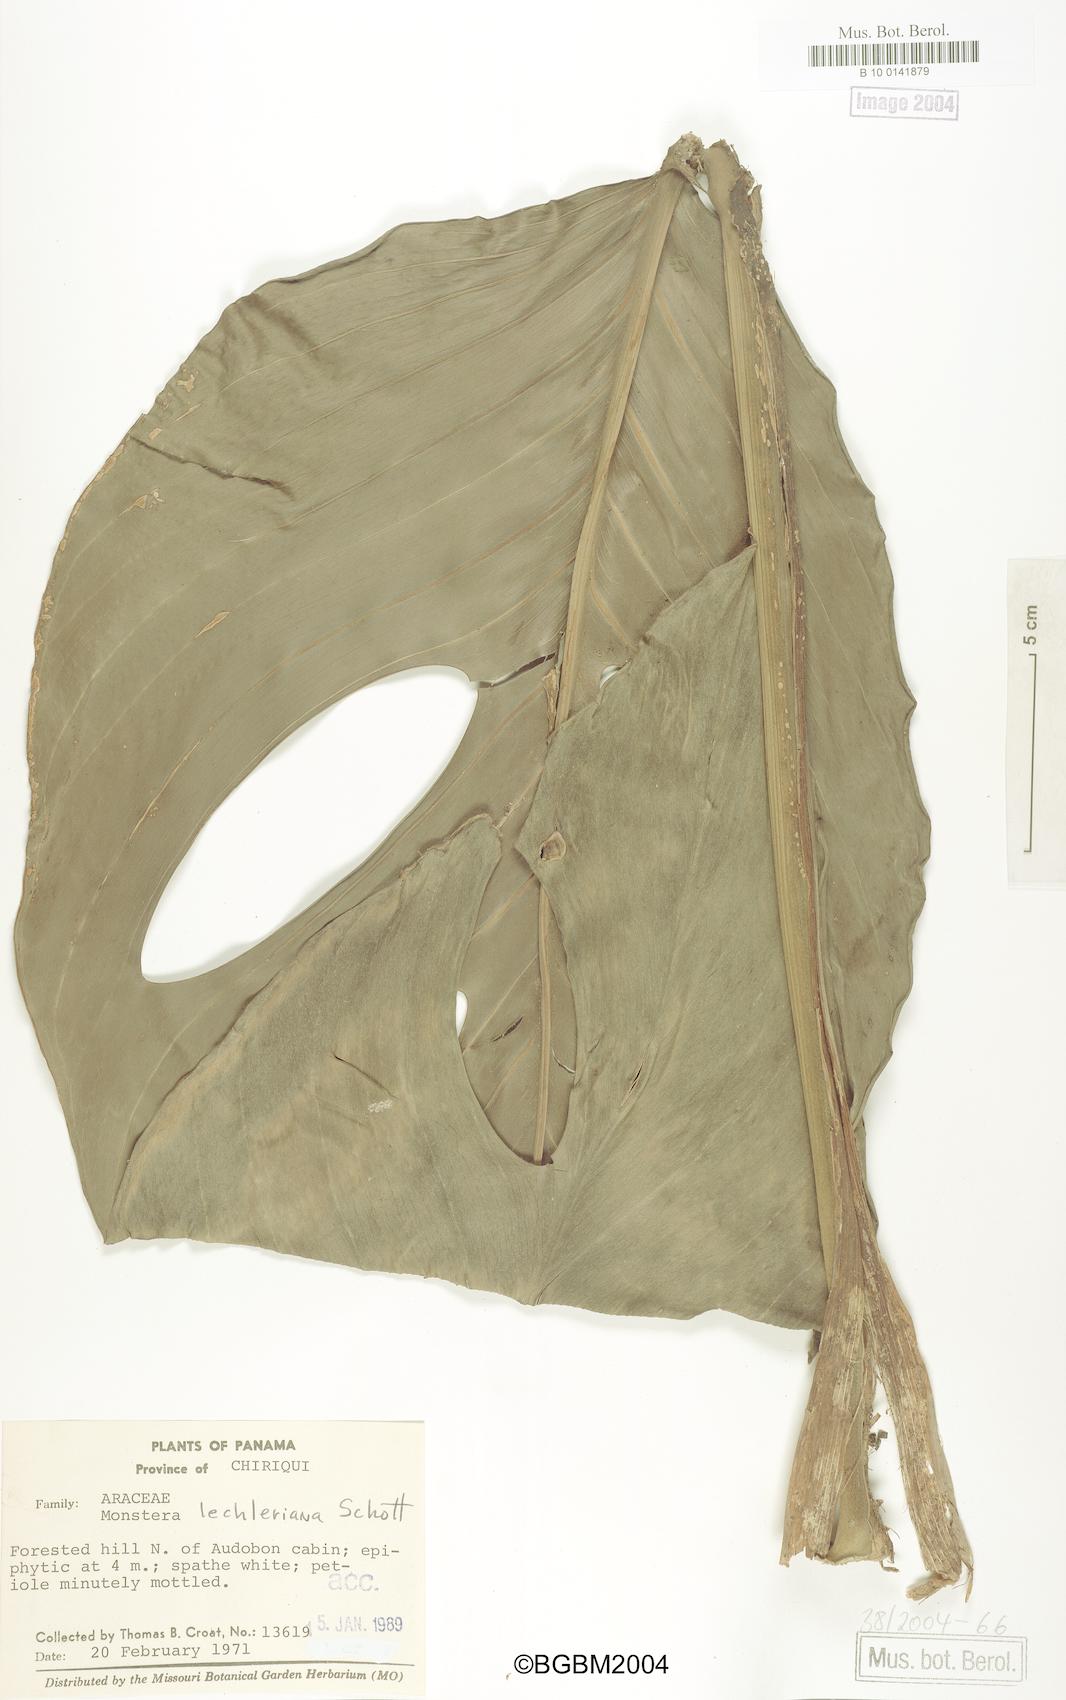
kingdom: Plantae
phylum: Tracheophyta
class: Liliopsida
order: Alismatales
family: Araceae
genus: Monstera
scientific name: Monstera lechleriana
